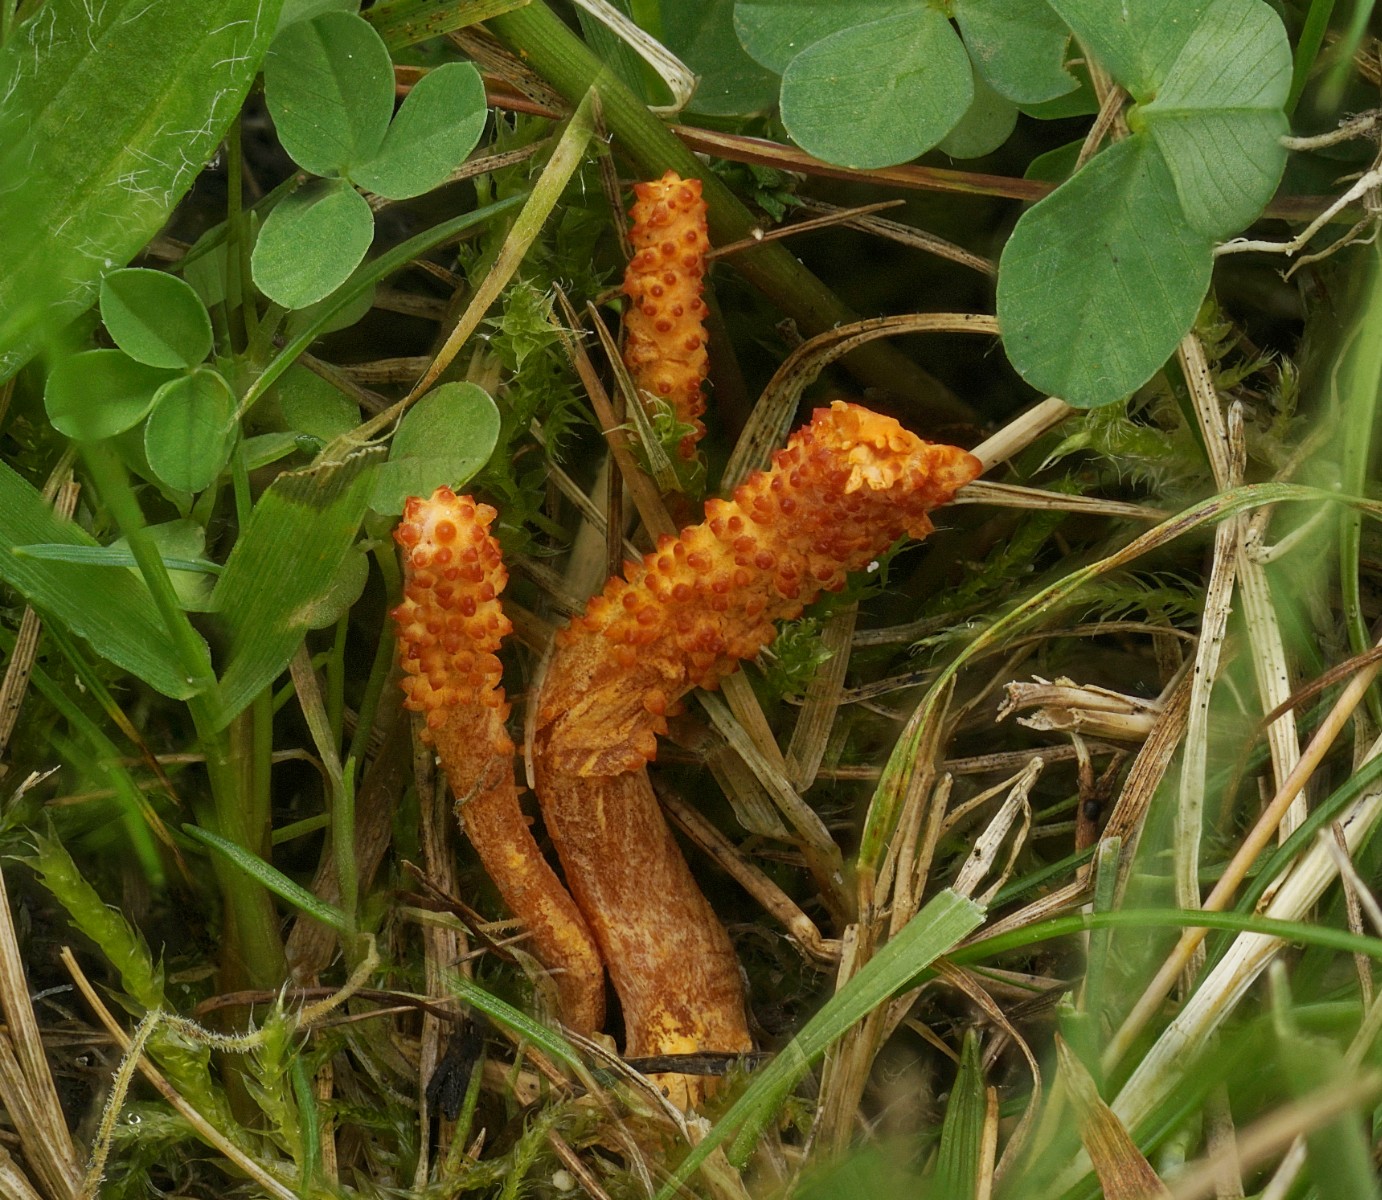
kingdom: Fungi
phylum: Ascomycota
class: Sordariomycetes
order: Hypocreales
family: Cordycipitaceae
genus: Cordyceps
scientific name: Cordyceps militaris
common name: puppe-snyltekølle
